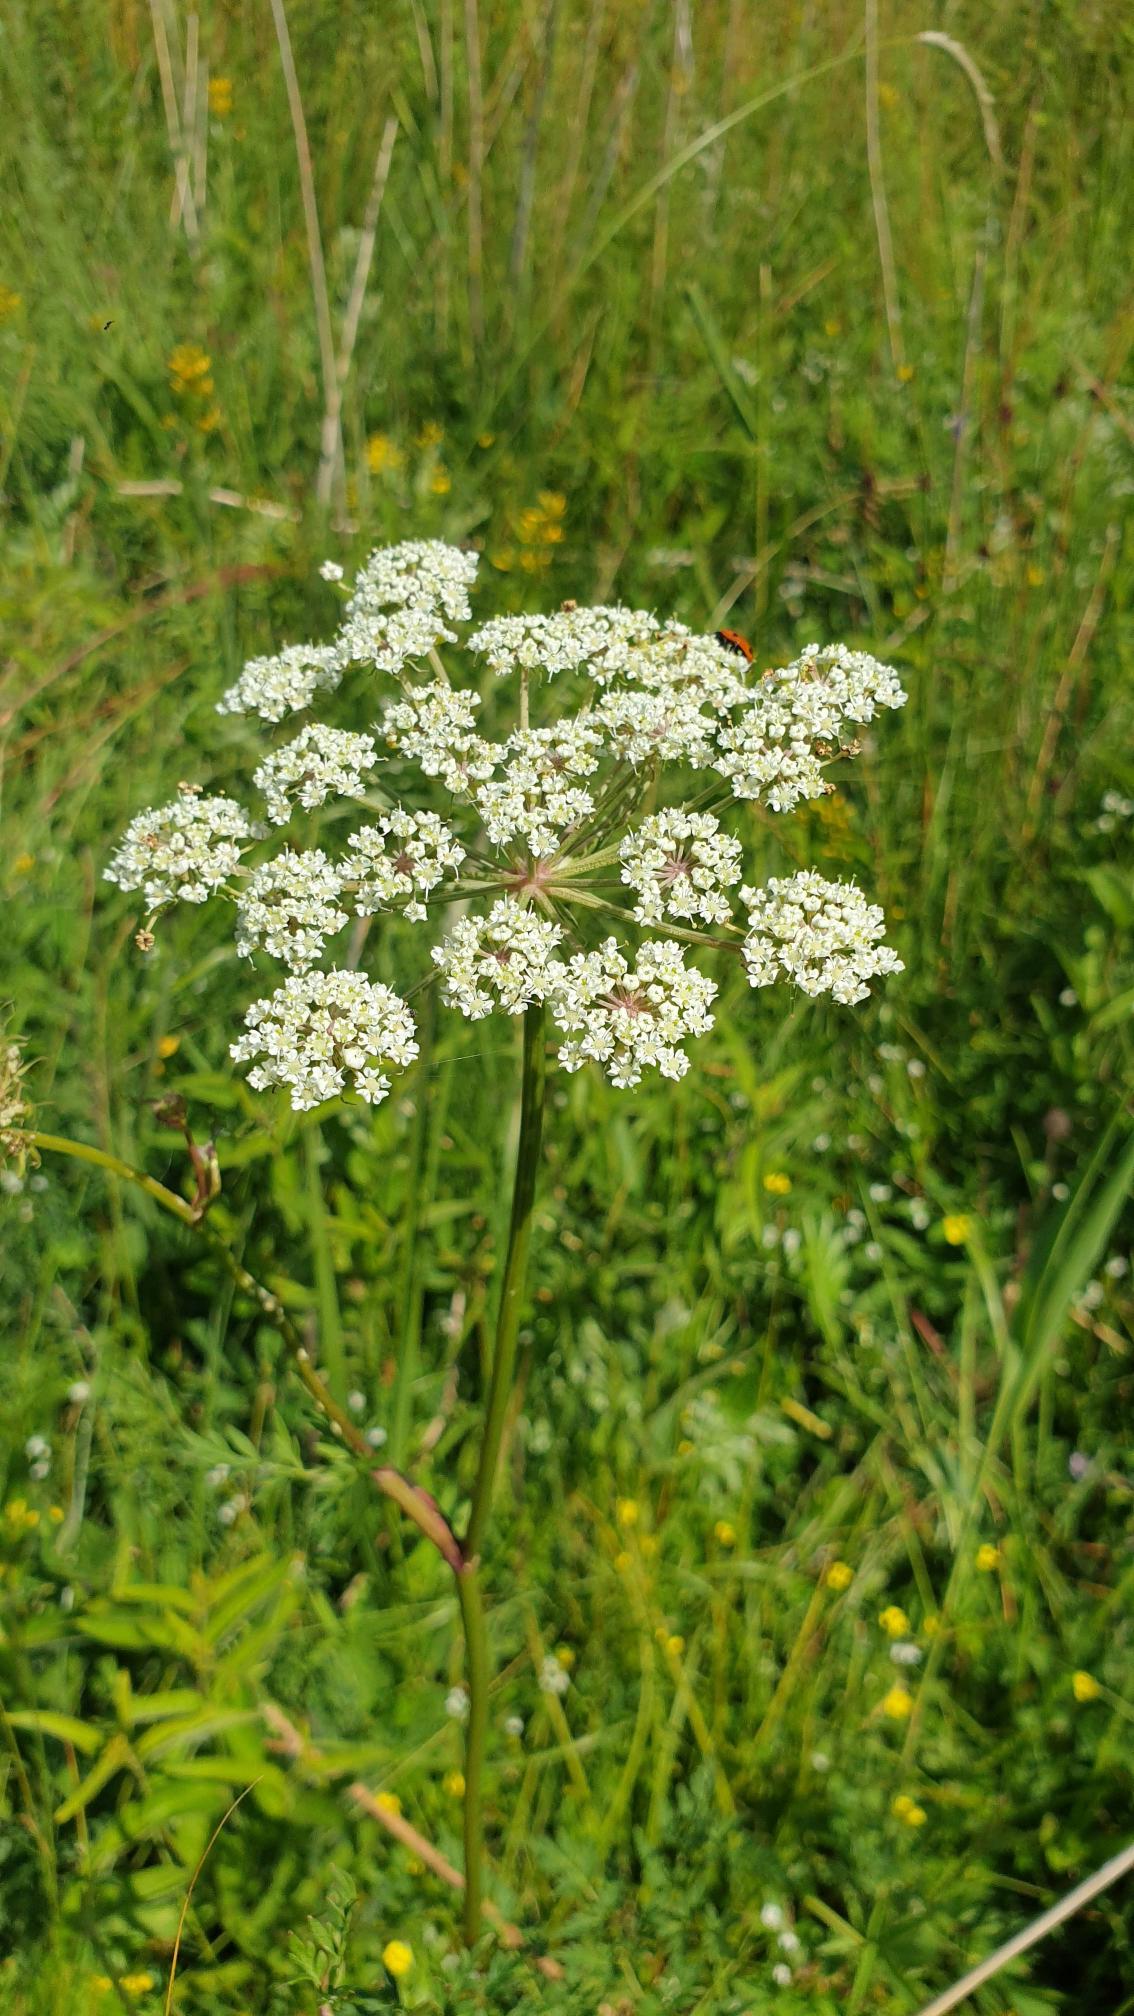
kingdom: Plantae
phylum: Tracheophyta
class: Magnoliopsida
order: Apiales
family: Apiaceae
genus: Selinum
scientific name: Selinum carvifolia
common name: Seline
